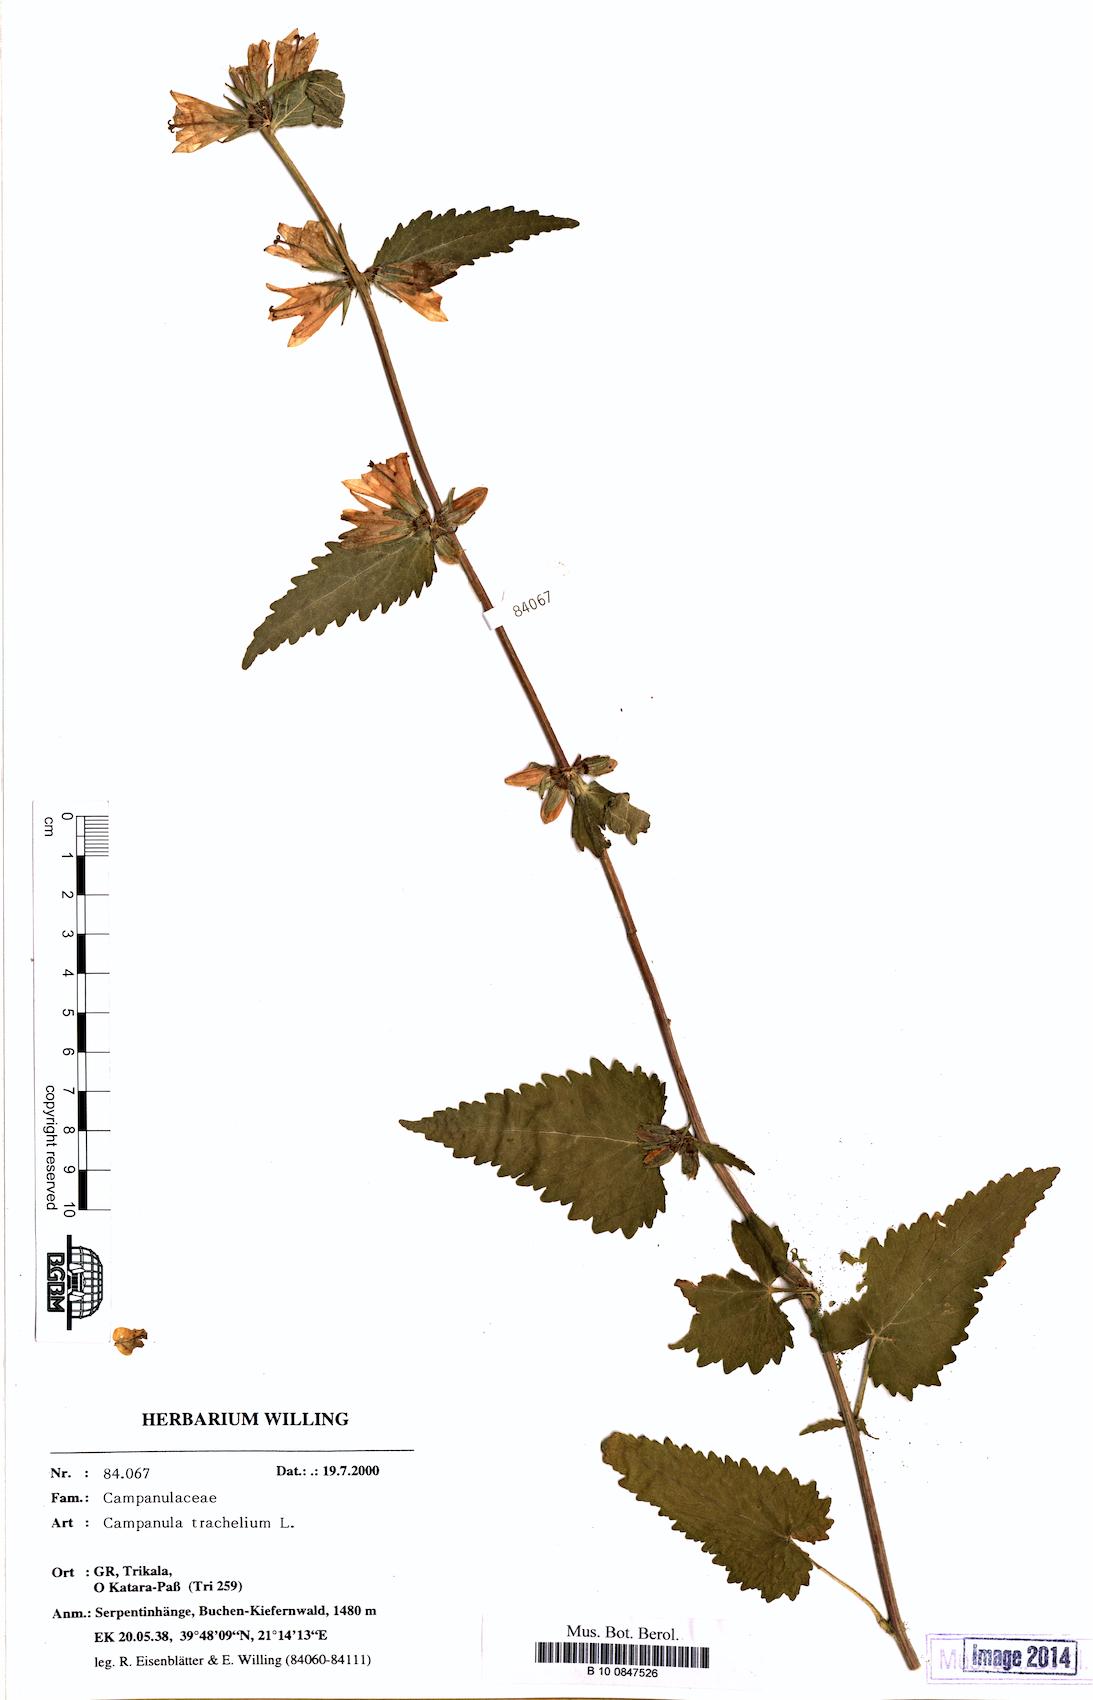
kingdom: Plantae
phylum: Tracheophyta
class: Magnoliopsida
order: Asterales
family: Campanulaceae
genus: Campanula
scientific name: Campanula trachelium
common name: Nettle-leaved bellflower
